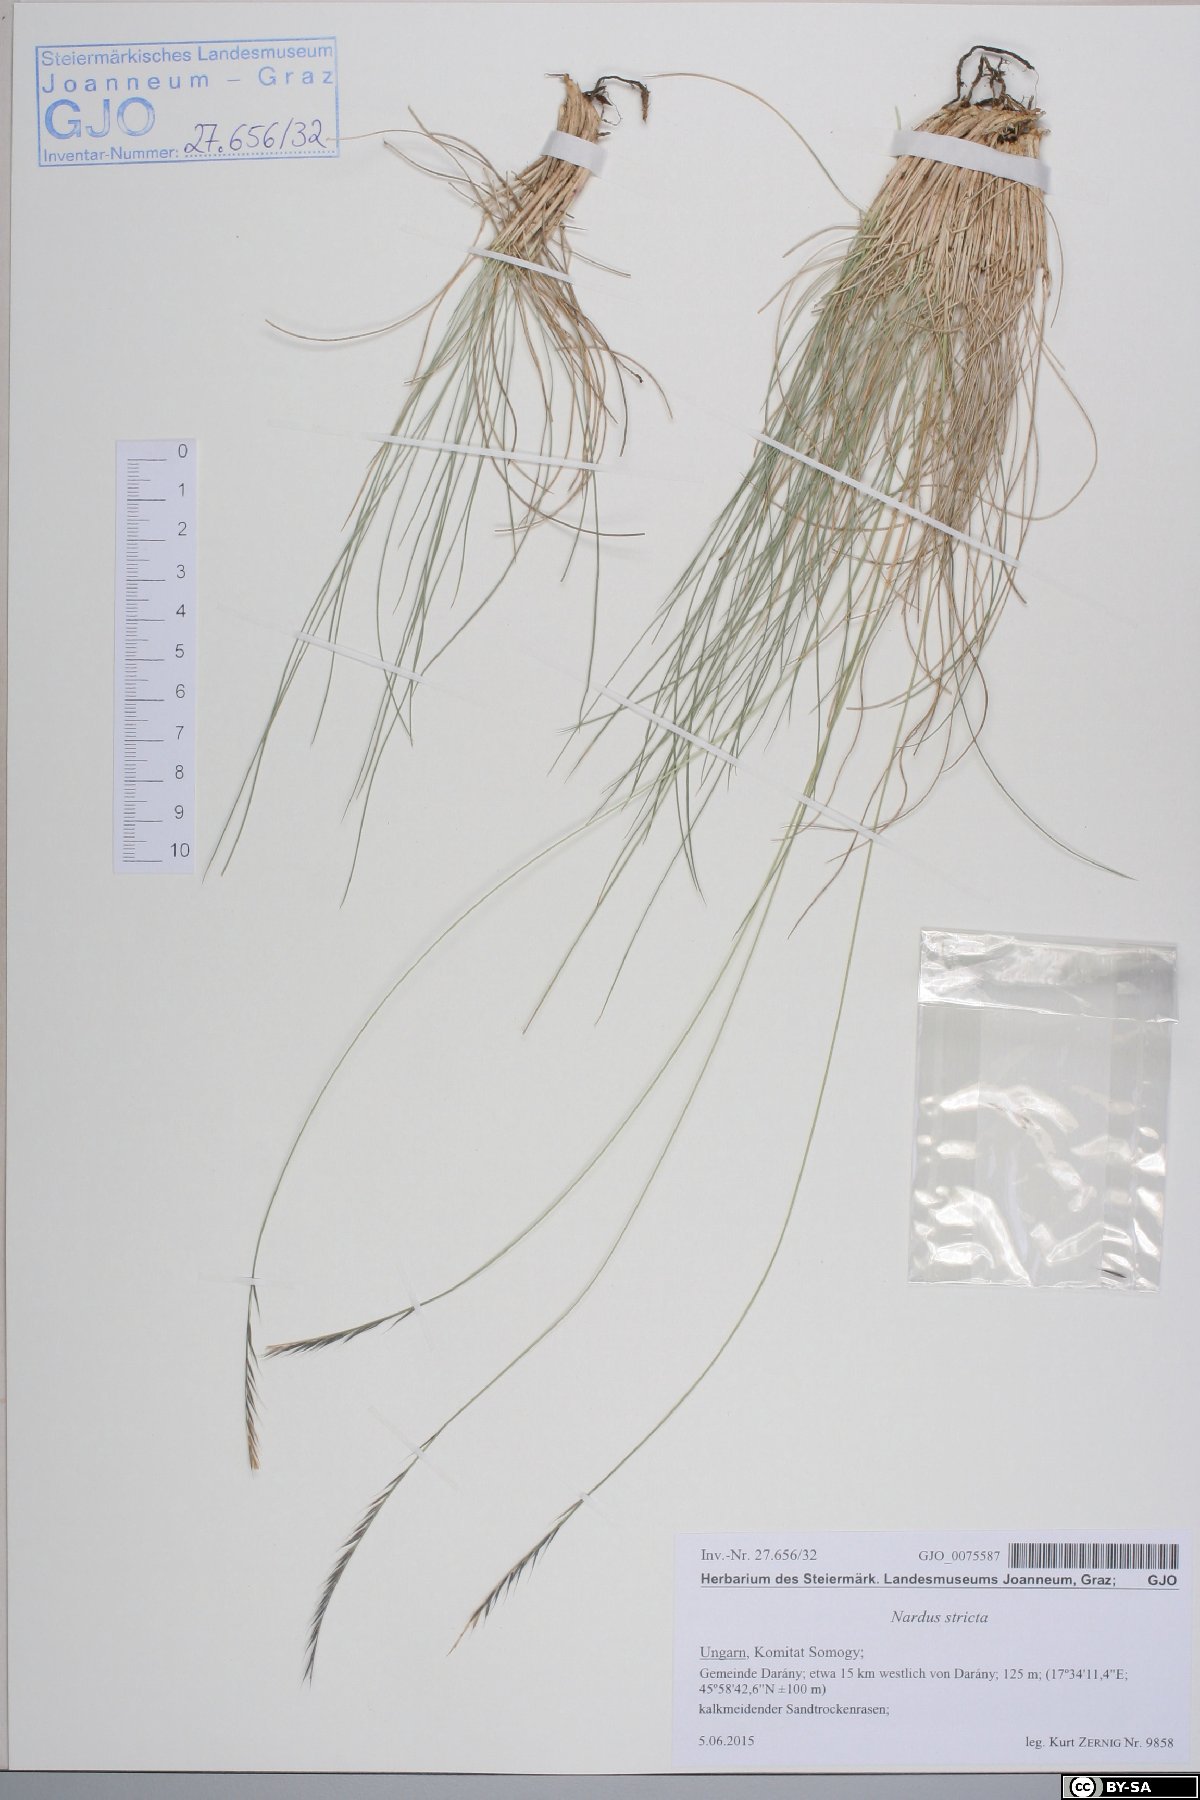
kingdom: Plantae
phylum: Tracheophyta
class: Liliopsida
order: Poales
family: Poaceae
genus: Nardus
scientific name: Nardus stricta
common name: Mat-grass
